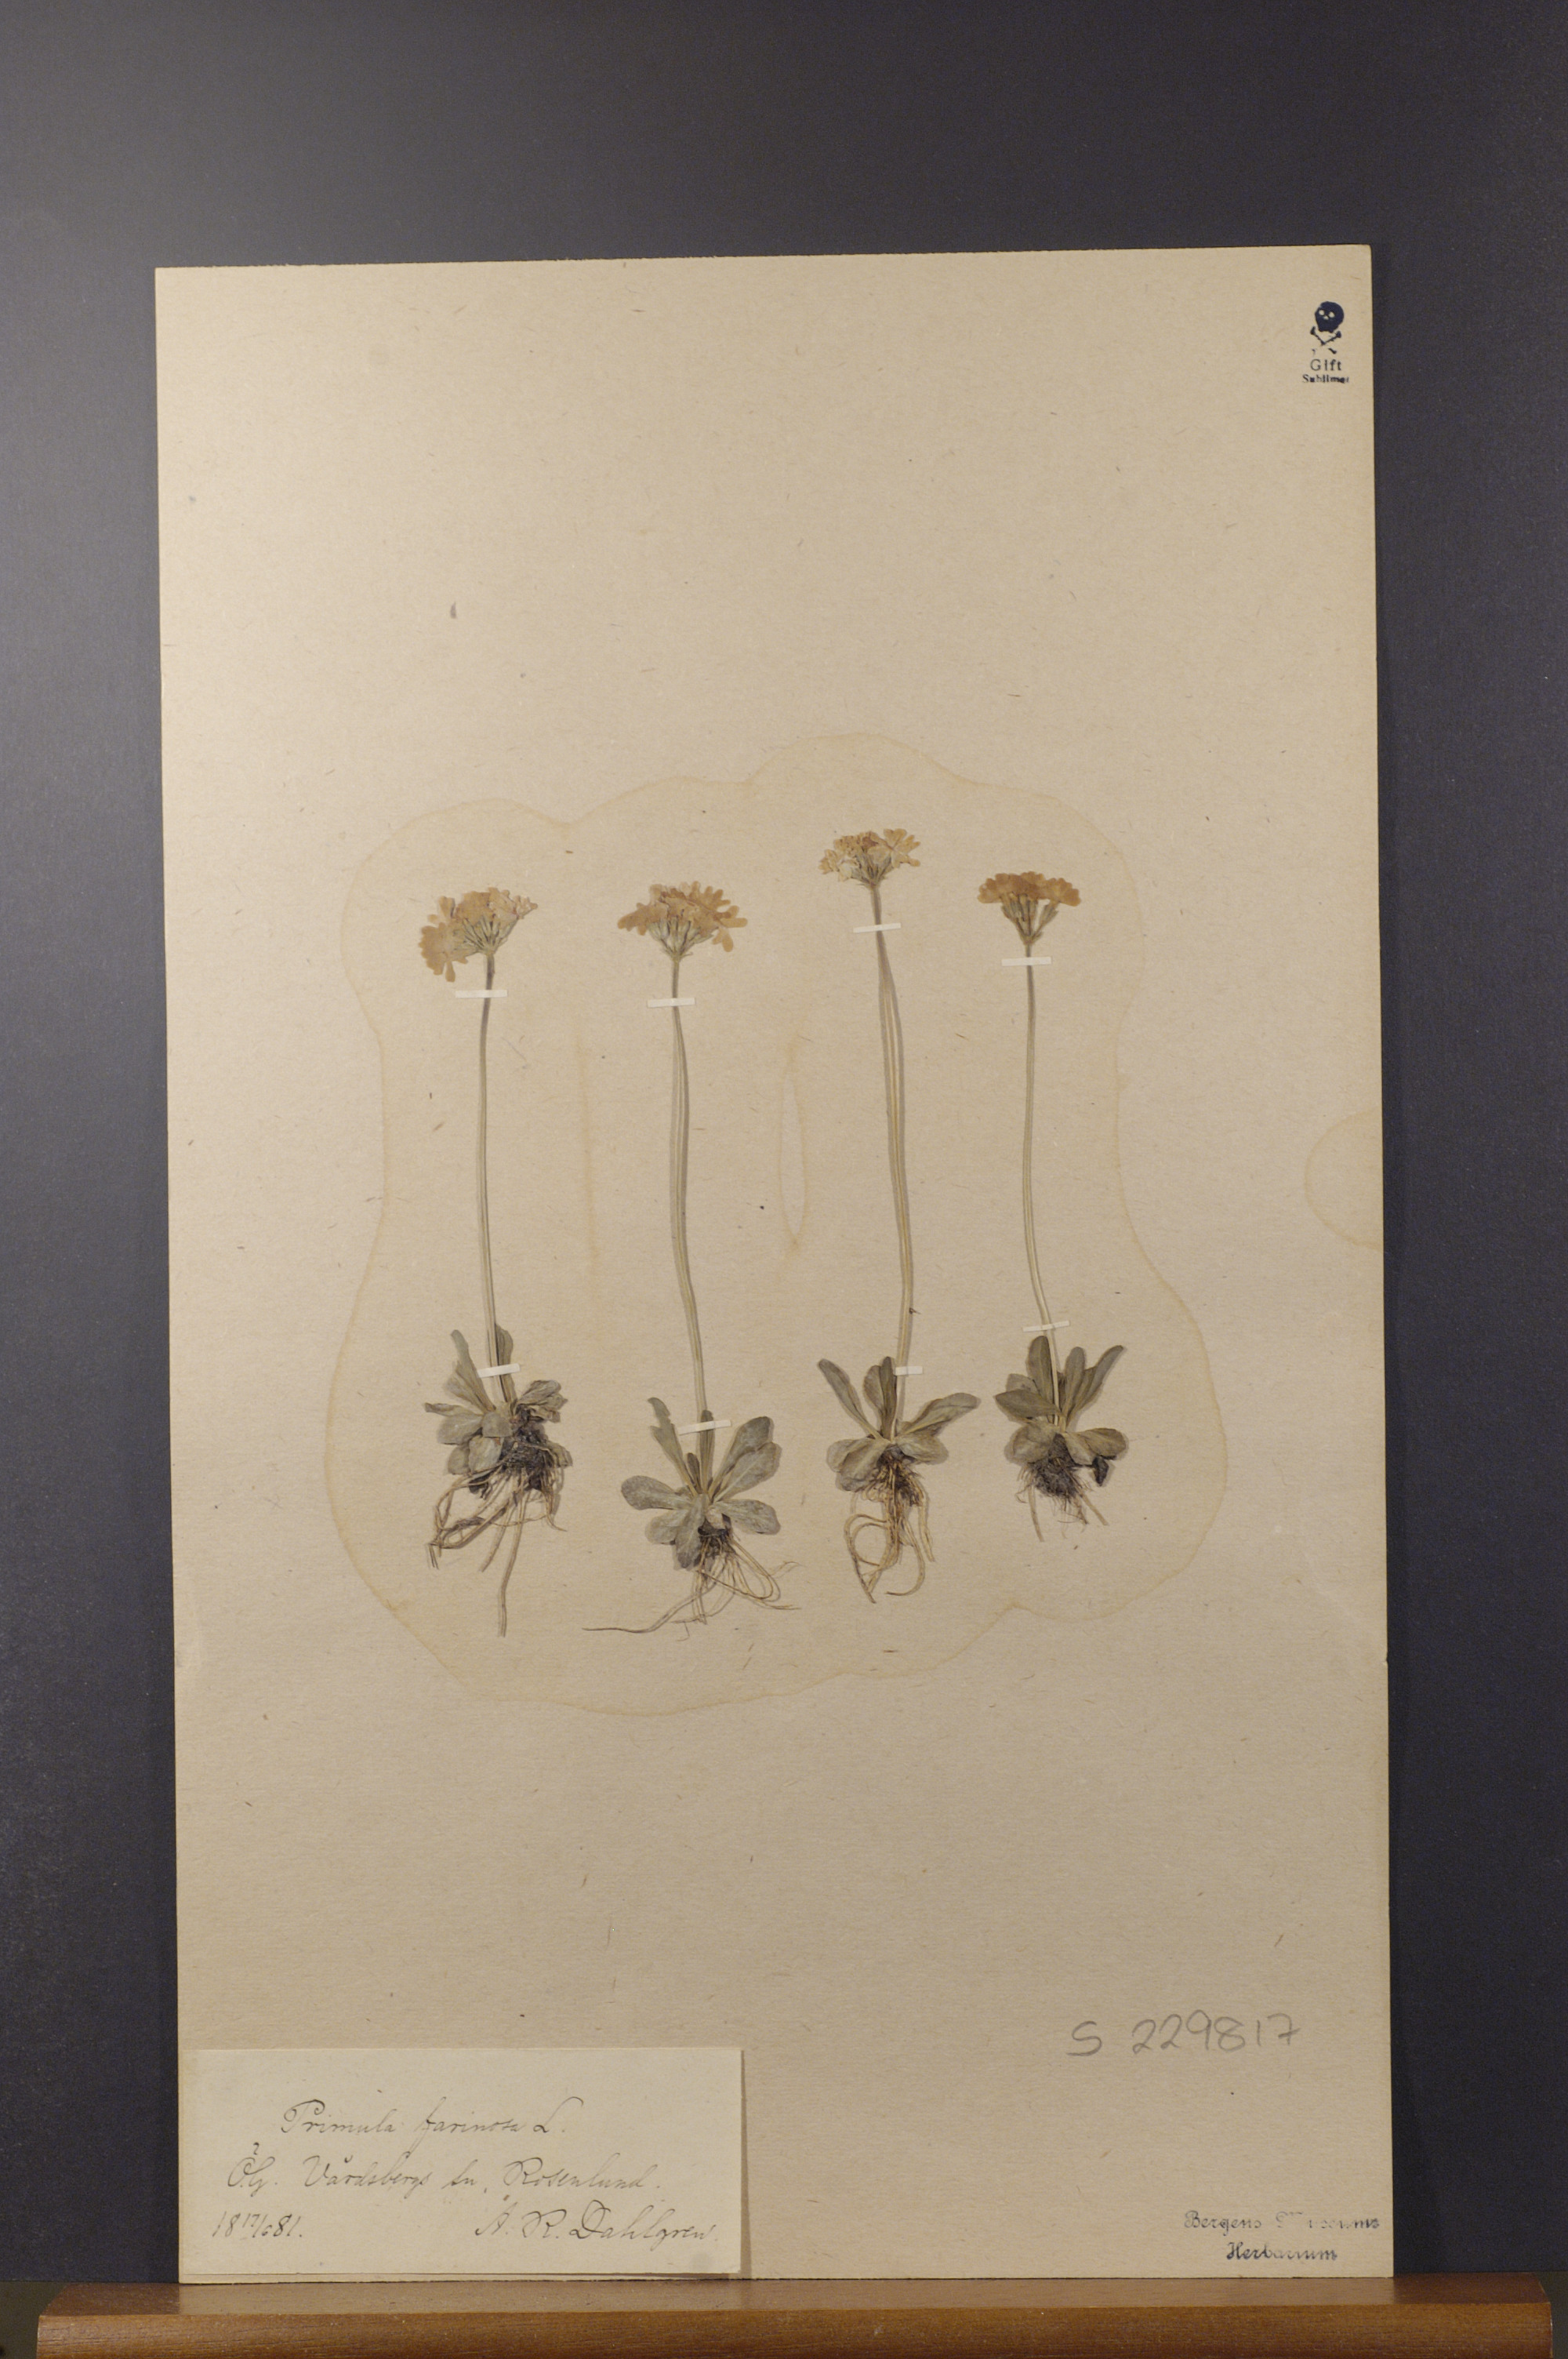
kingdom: Plantae
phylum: Tracheophyta
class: Magnoliopsida
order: Ericales
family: Primulaceae
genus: Primula
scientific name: Primula farinosa
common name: Bird's-eye primrose
